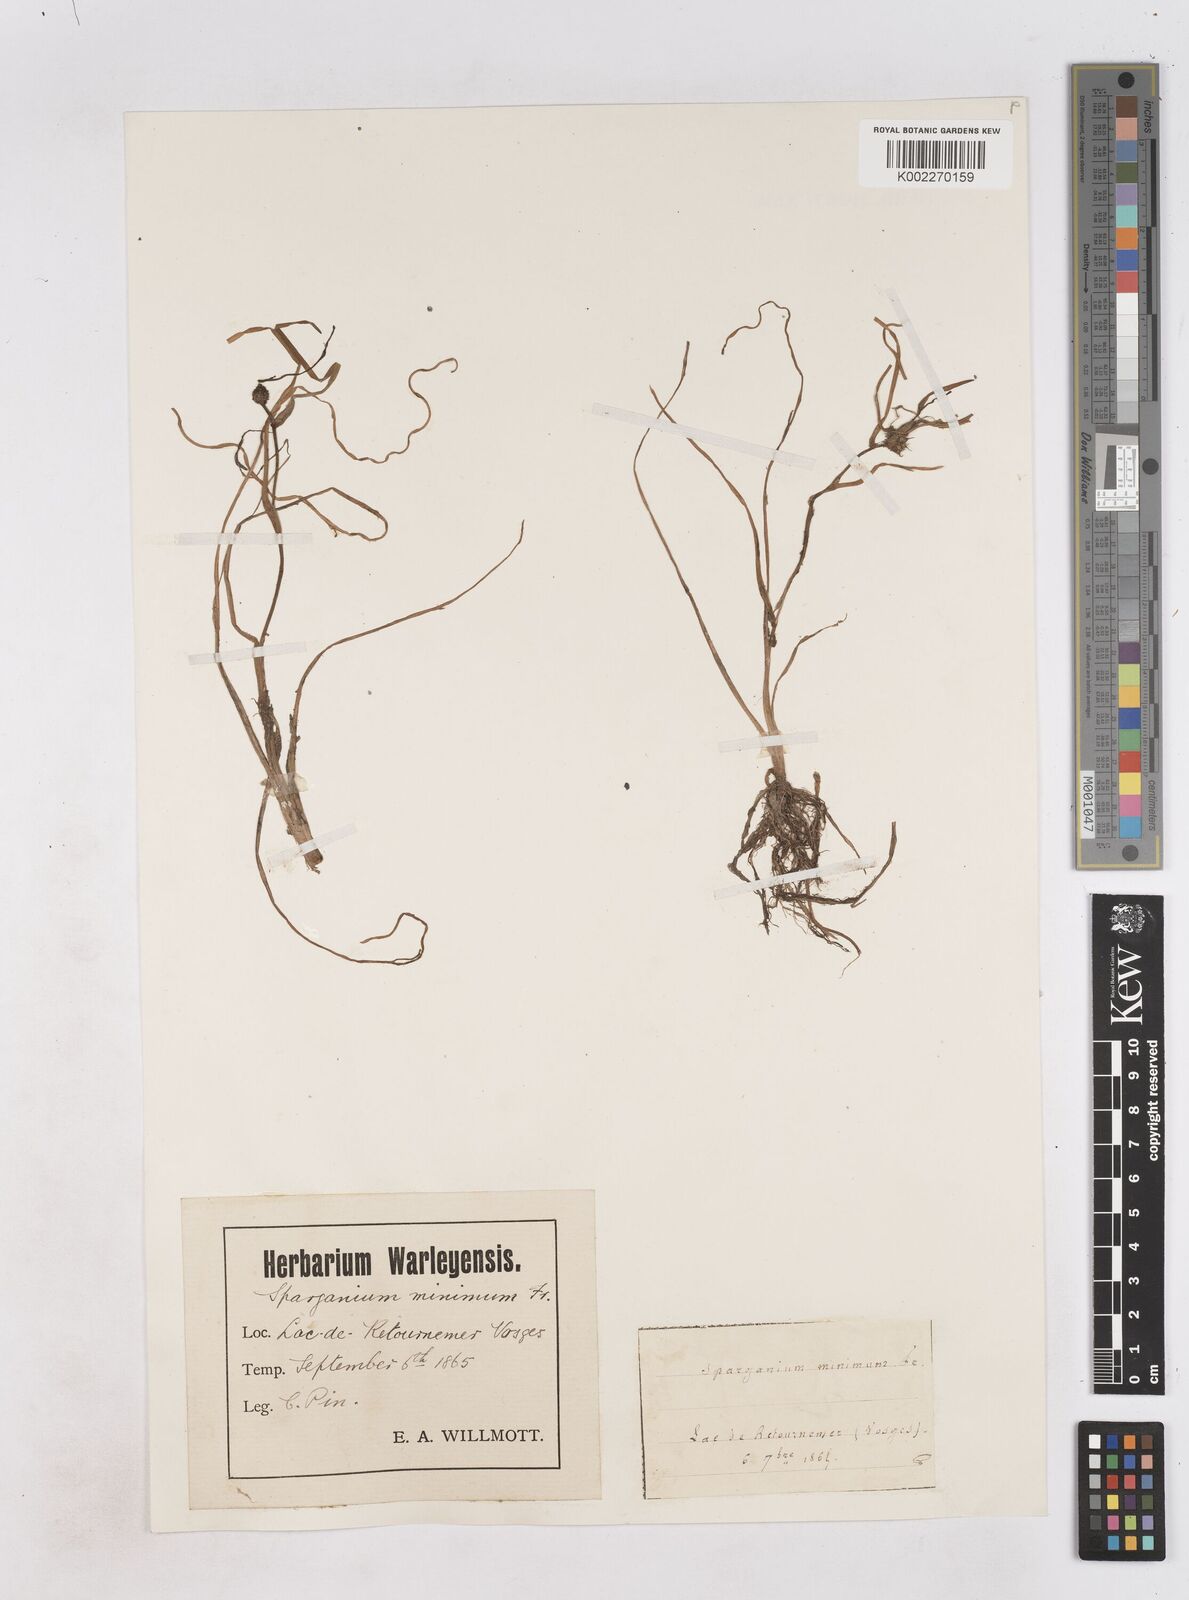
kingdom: Plantae
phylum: Tracheophyta
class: Liliopsida
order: Poales
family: Typhaceae
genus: Sparganium
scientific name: Sparganium natans
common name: Least bur-reed
